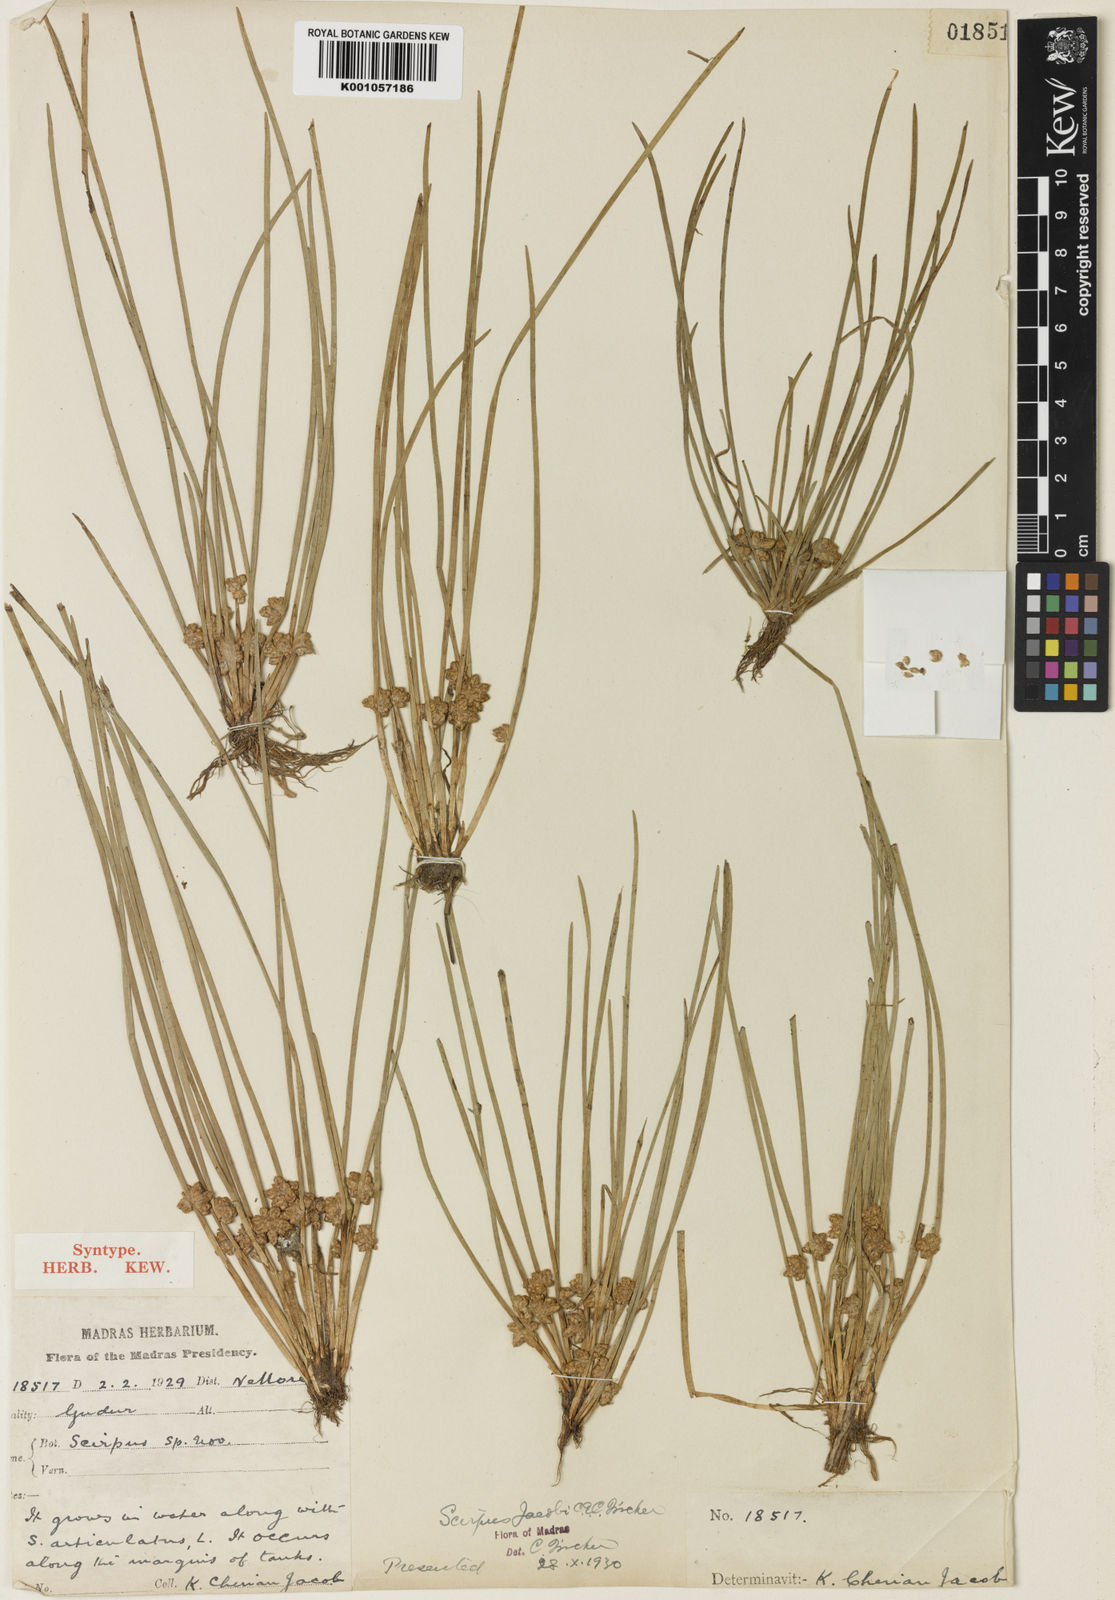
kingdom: Plantae
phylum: Tracheophyta
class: Liliopsida
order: Poales
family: Cyperaceae
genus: Schoenoplectiella
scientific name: Schoenoplectiella senegalensis
